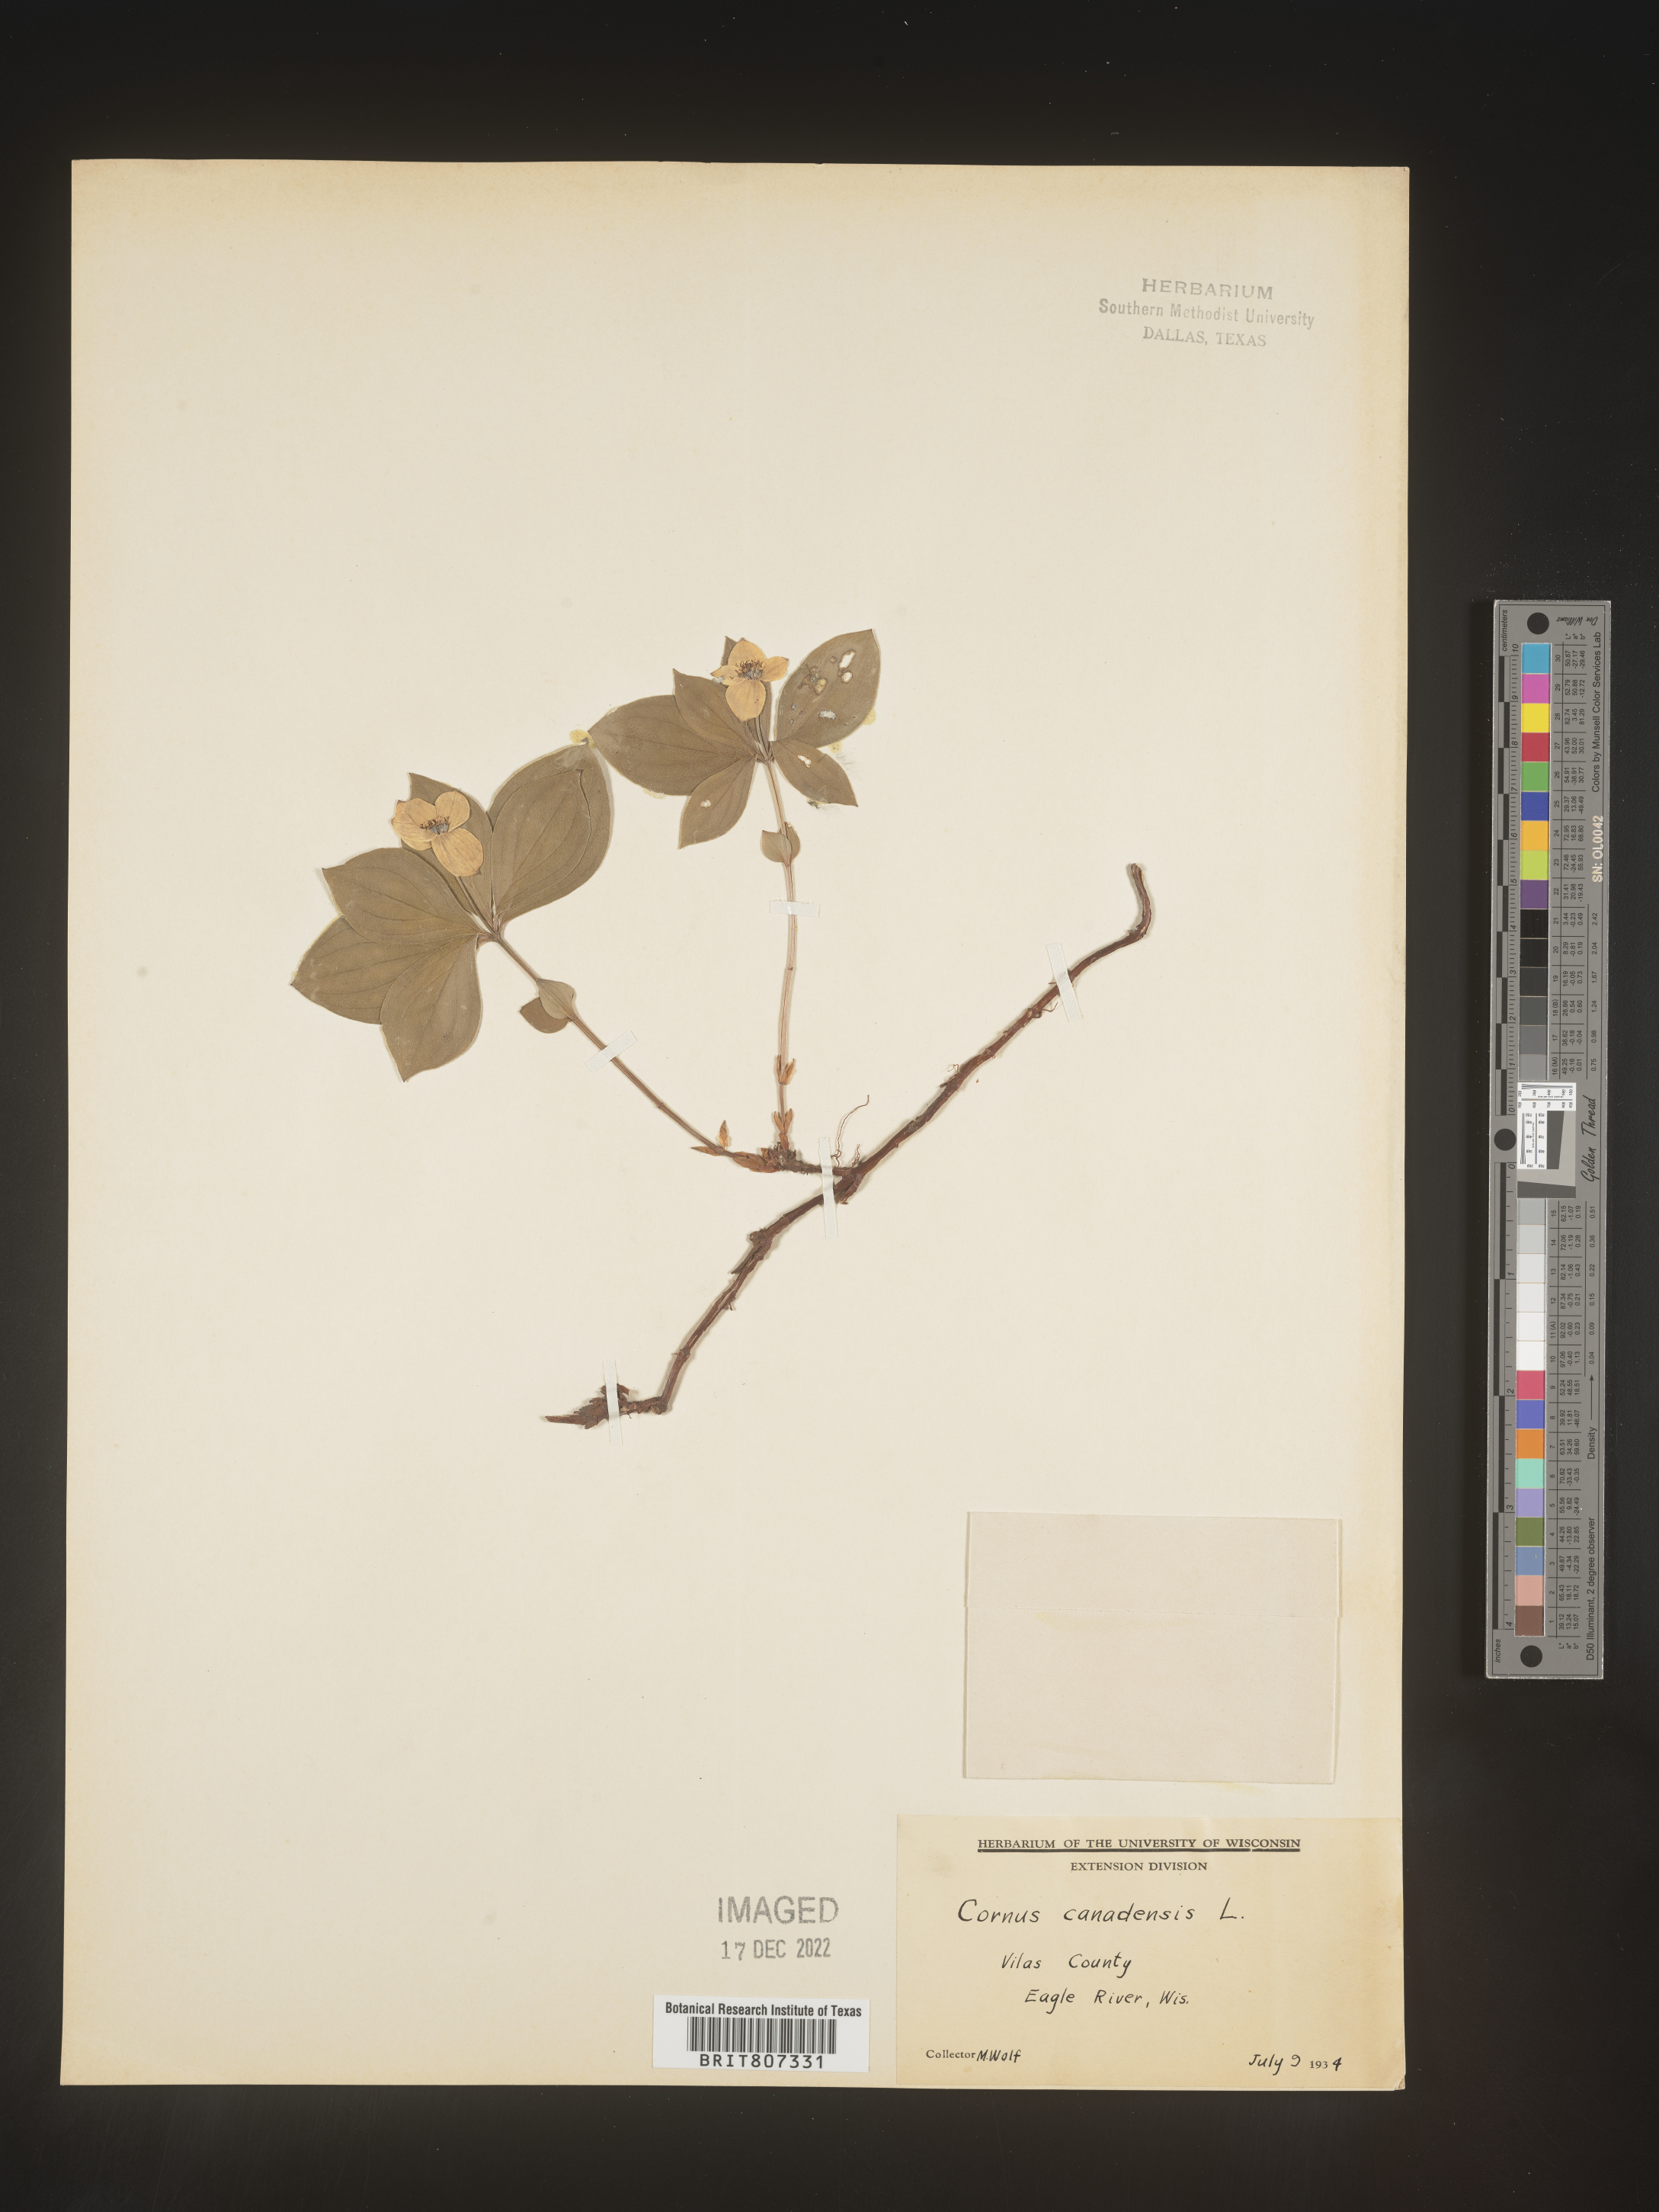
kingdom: Plantae
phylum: Tracheophyta
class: Magnoliopsida
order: Cornales
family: Cornaceae
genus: Cornus
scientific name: Cornus canadensis
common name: Creeping dogwood
